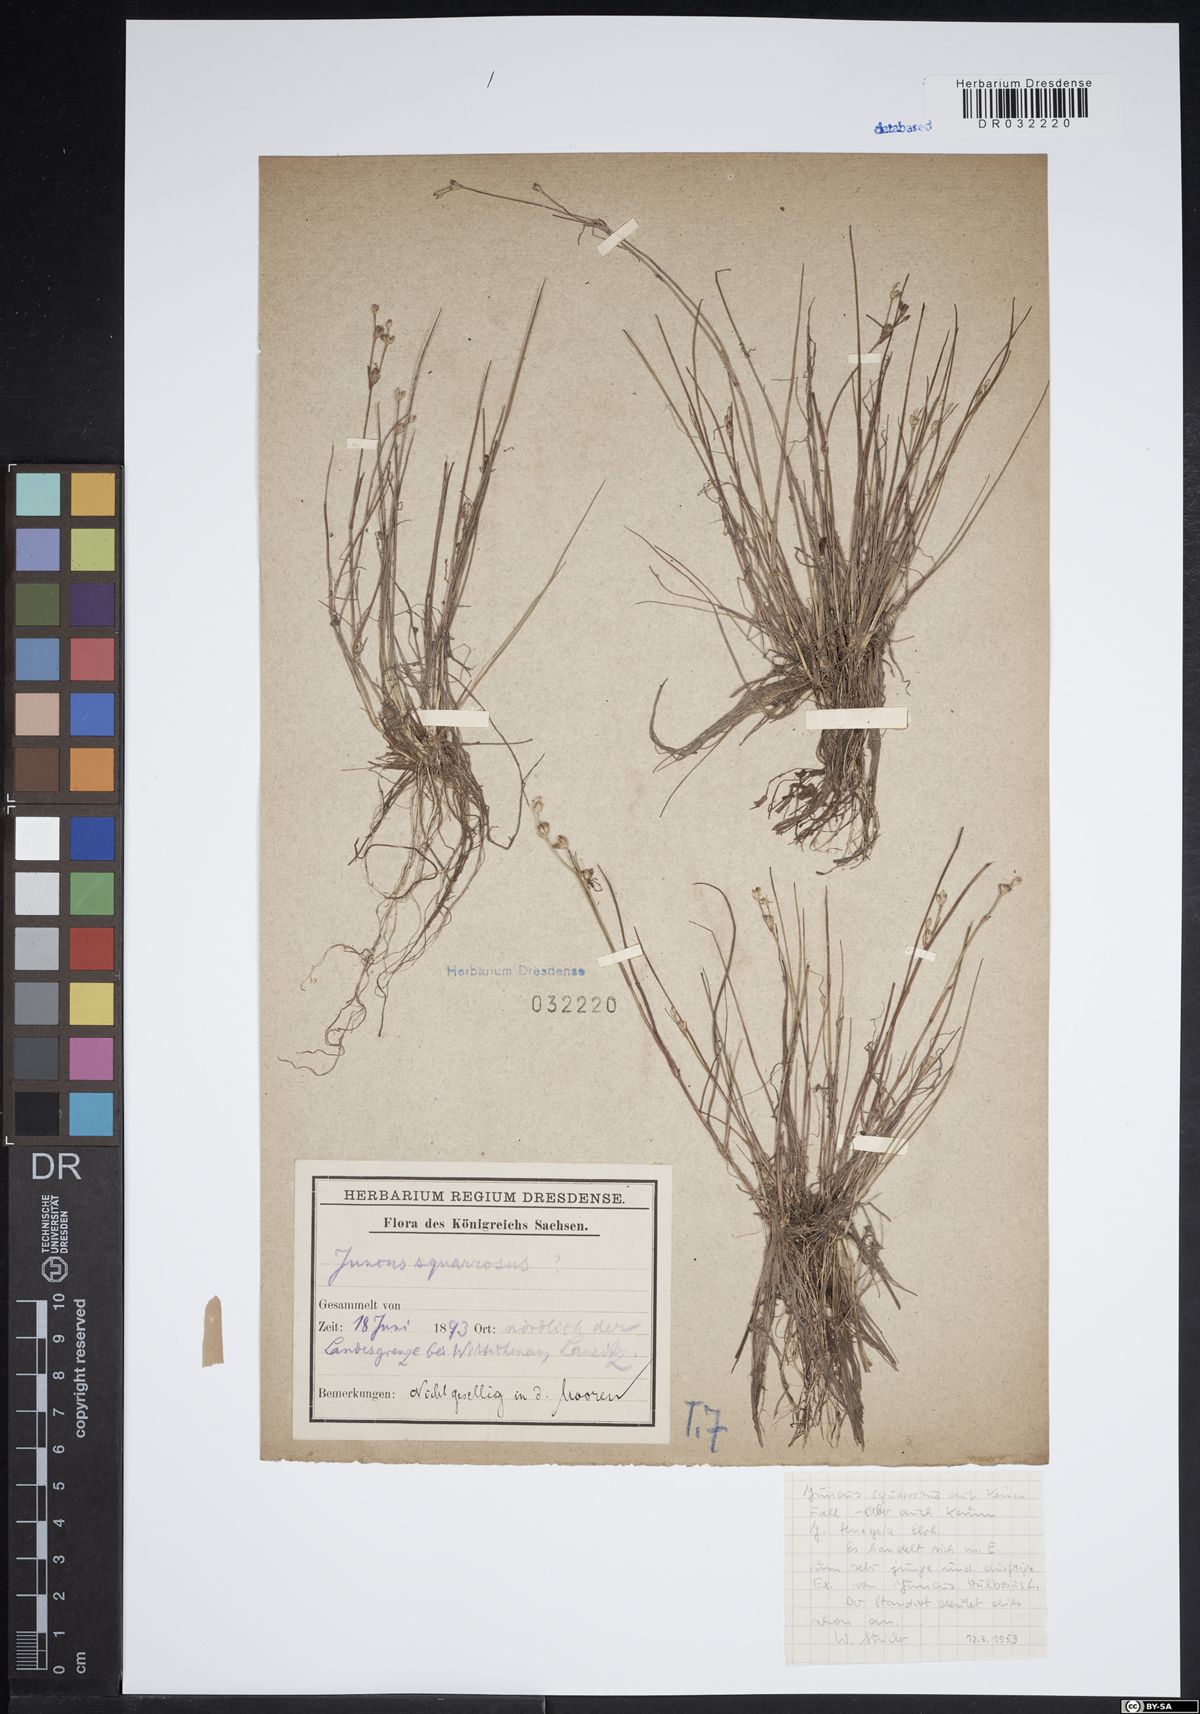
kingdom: Plantae
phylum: Tracheophyta
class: Liliopsida
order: Poales
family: Juncaceae
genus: Juncus
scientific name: Juncus bulbosus
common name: Bulbous rush
